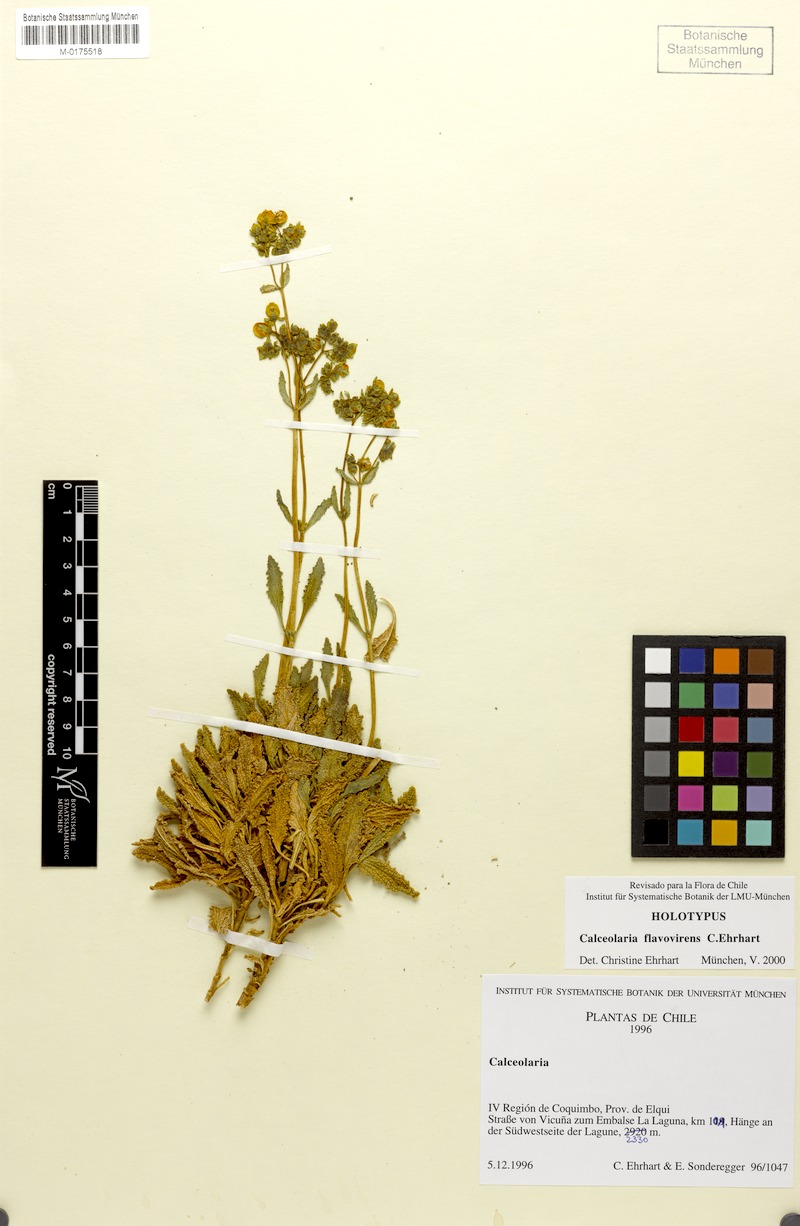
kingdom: Plantae
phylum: Tracheophyta
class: Magnoliopsida
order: Lamiales
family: Calceolariaceae
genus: Calceolaria
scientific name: Calceolaria flavovirens
